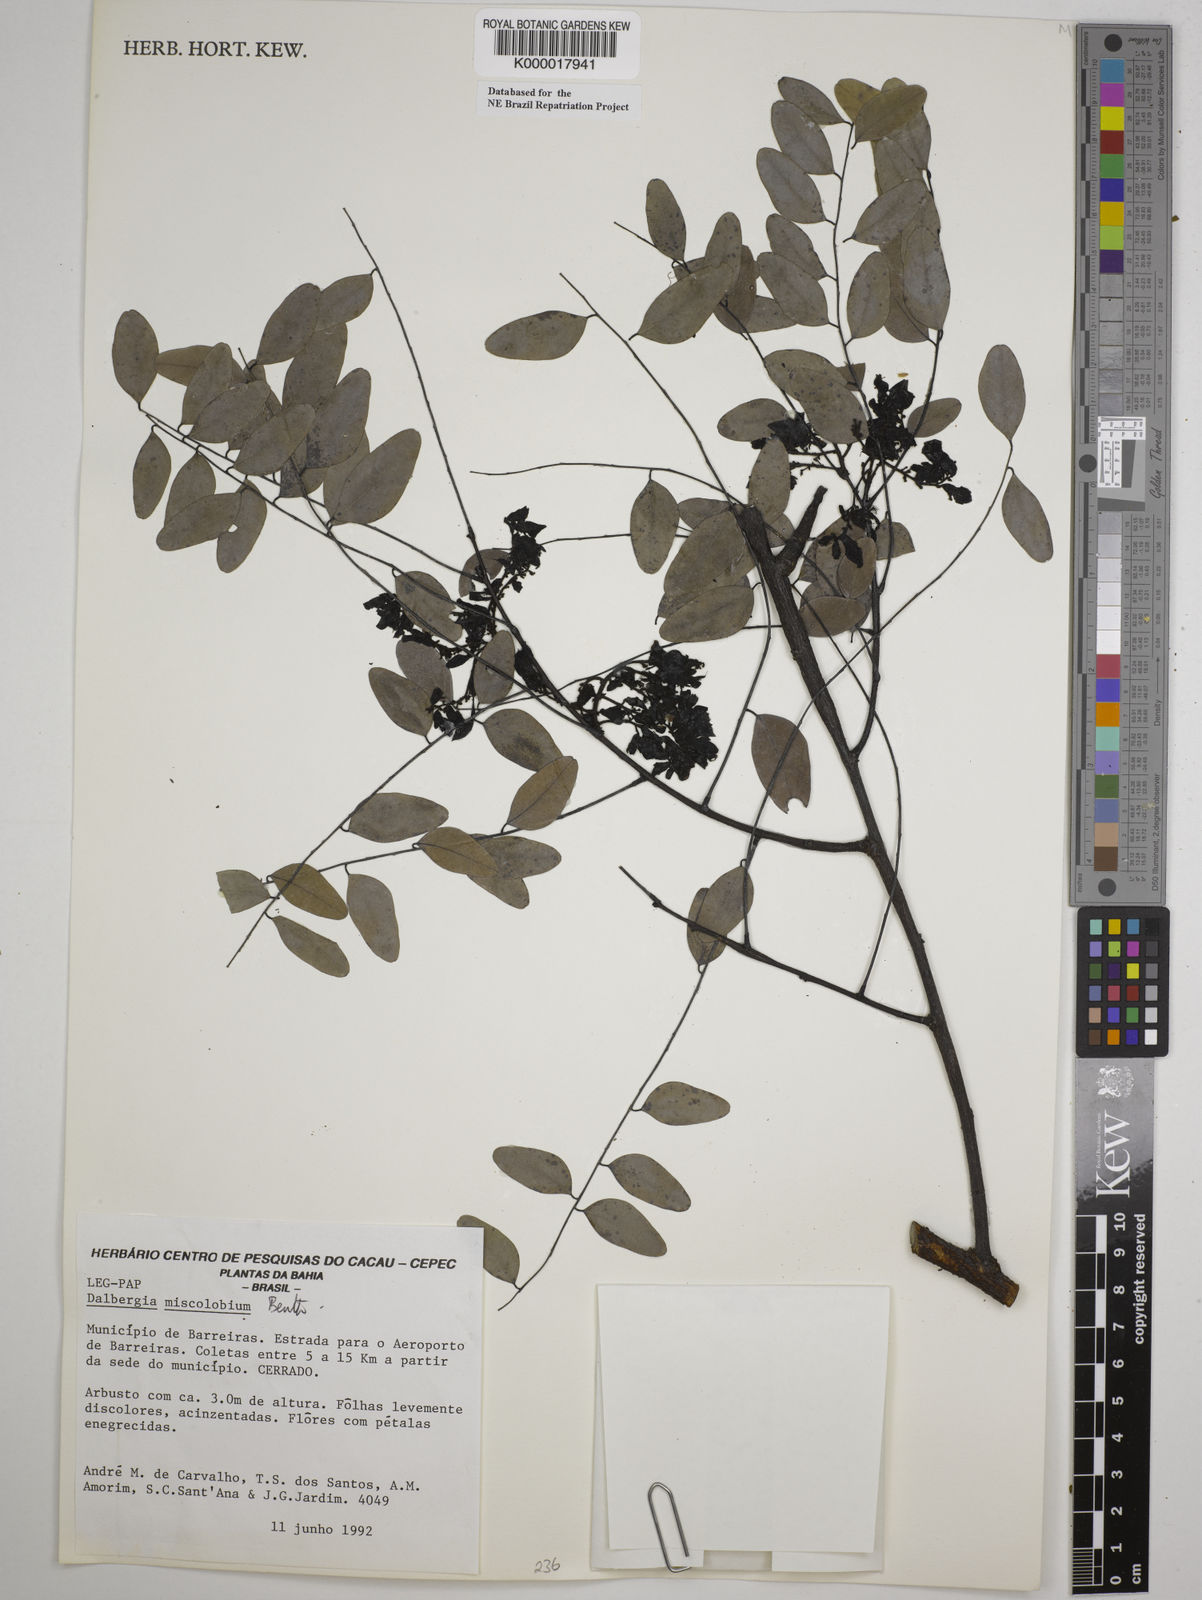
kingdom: Plantae
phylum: Tracheophyta
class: Magnoliopsida
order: Fabales
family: Fabaceae
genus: Dalbergia
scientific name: Dalbergia miscolobium
